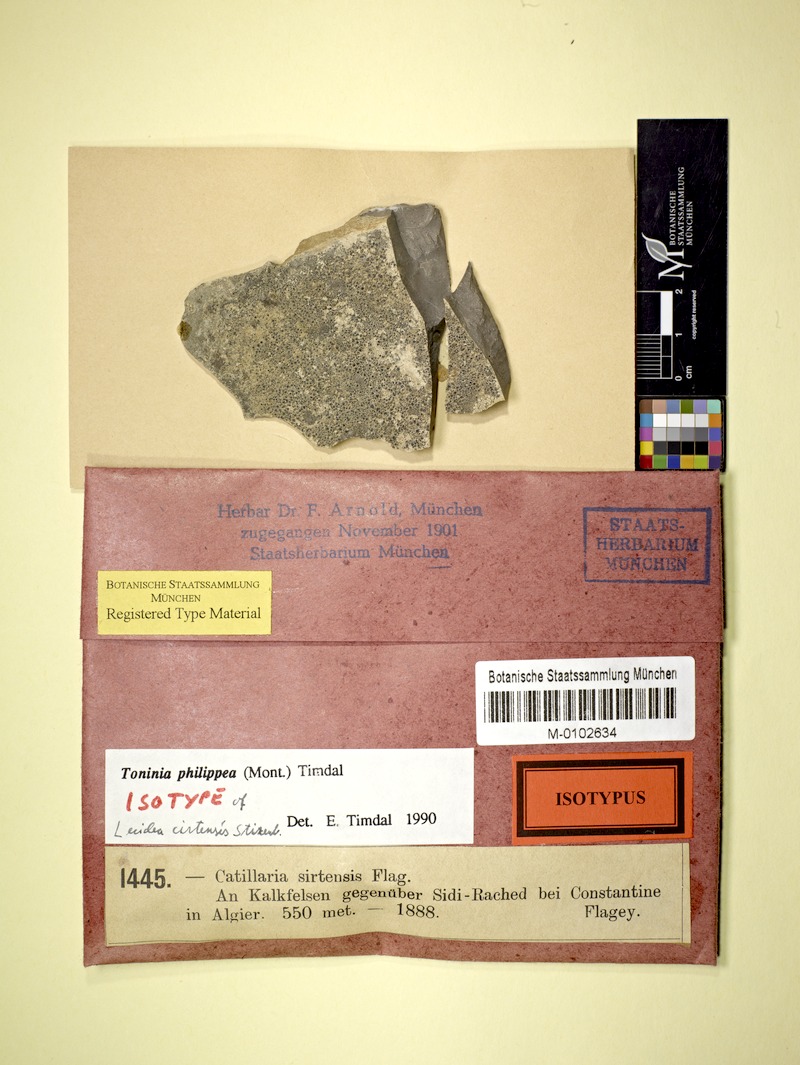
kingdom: Fungi
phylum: Ascomycota
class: Lecanoromycetes
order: Lecanorales
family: Ramalinaceae
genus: Kiliasia
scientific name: Kiliasia philippea
